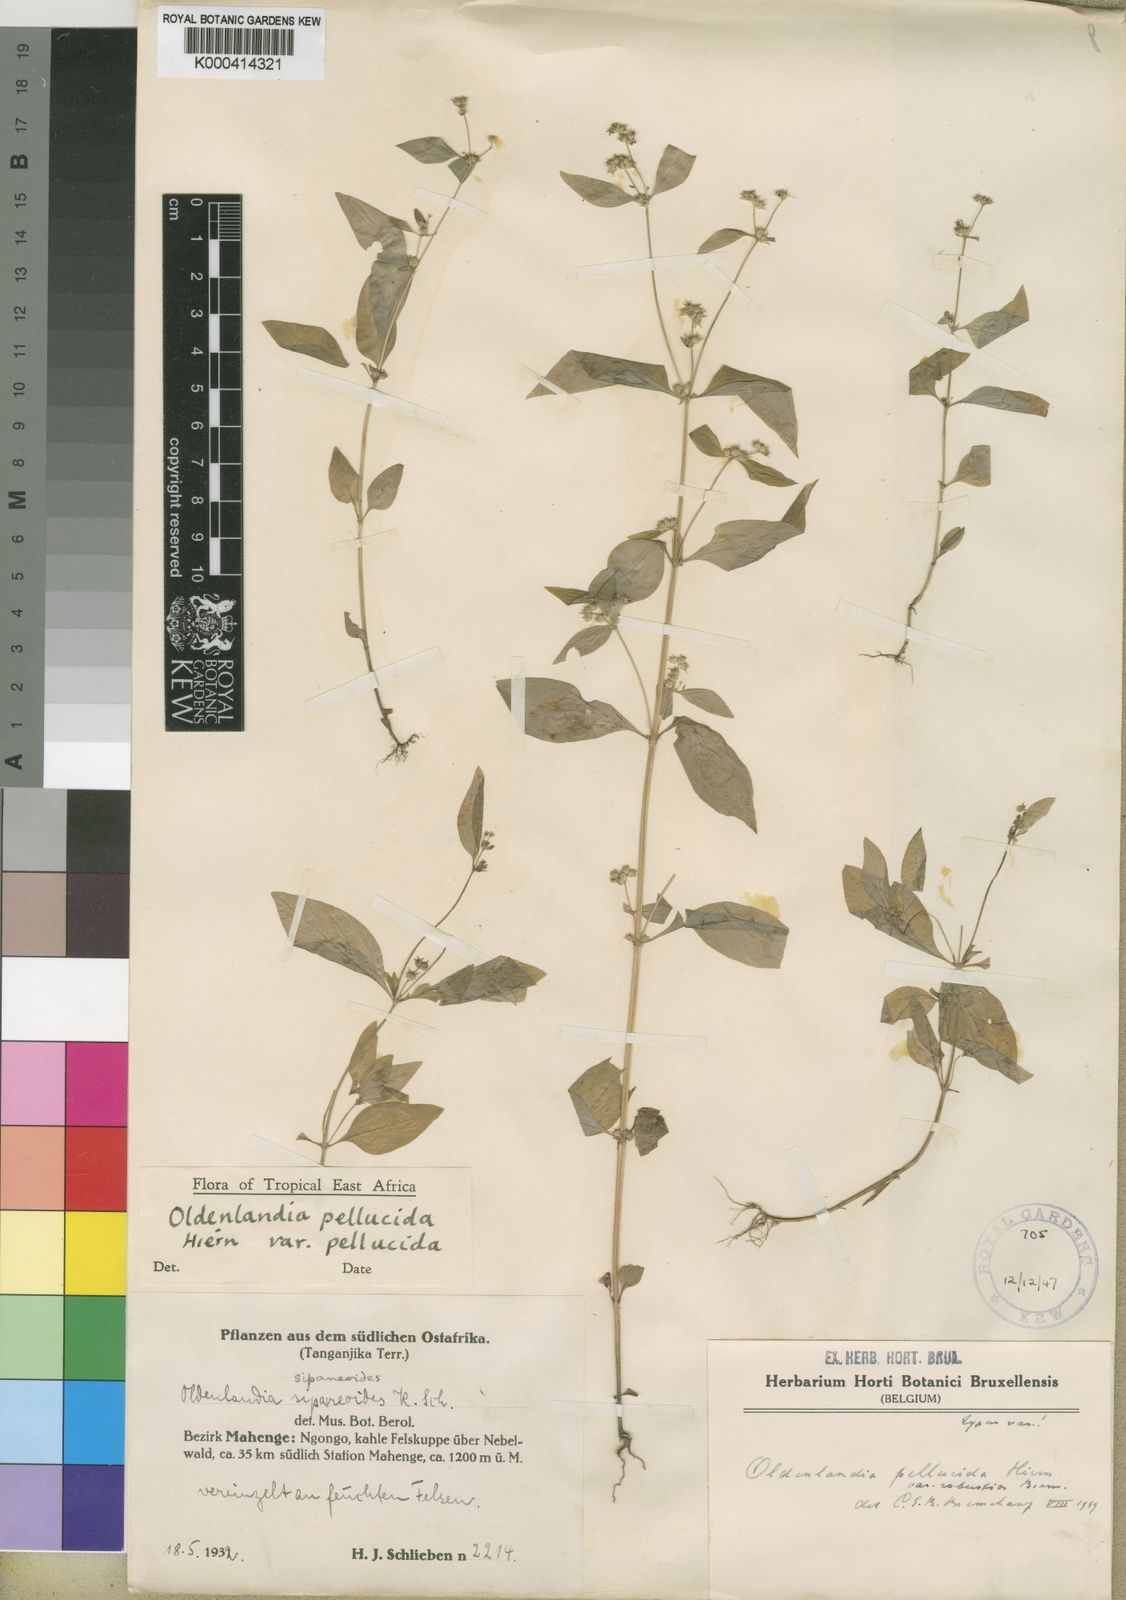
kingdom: Plantae
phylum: Tracheophyta
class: Magnoliopsida
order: Gentianales
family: Rubiaceae
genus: Oldenlandia
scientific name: Oldenlandia echinulosa
